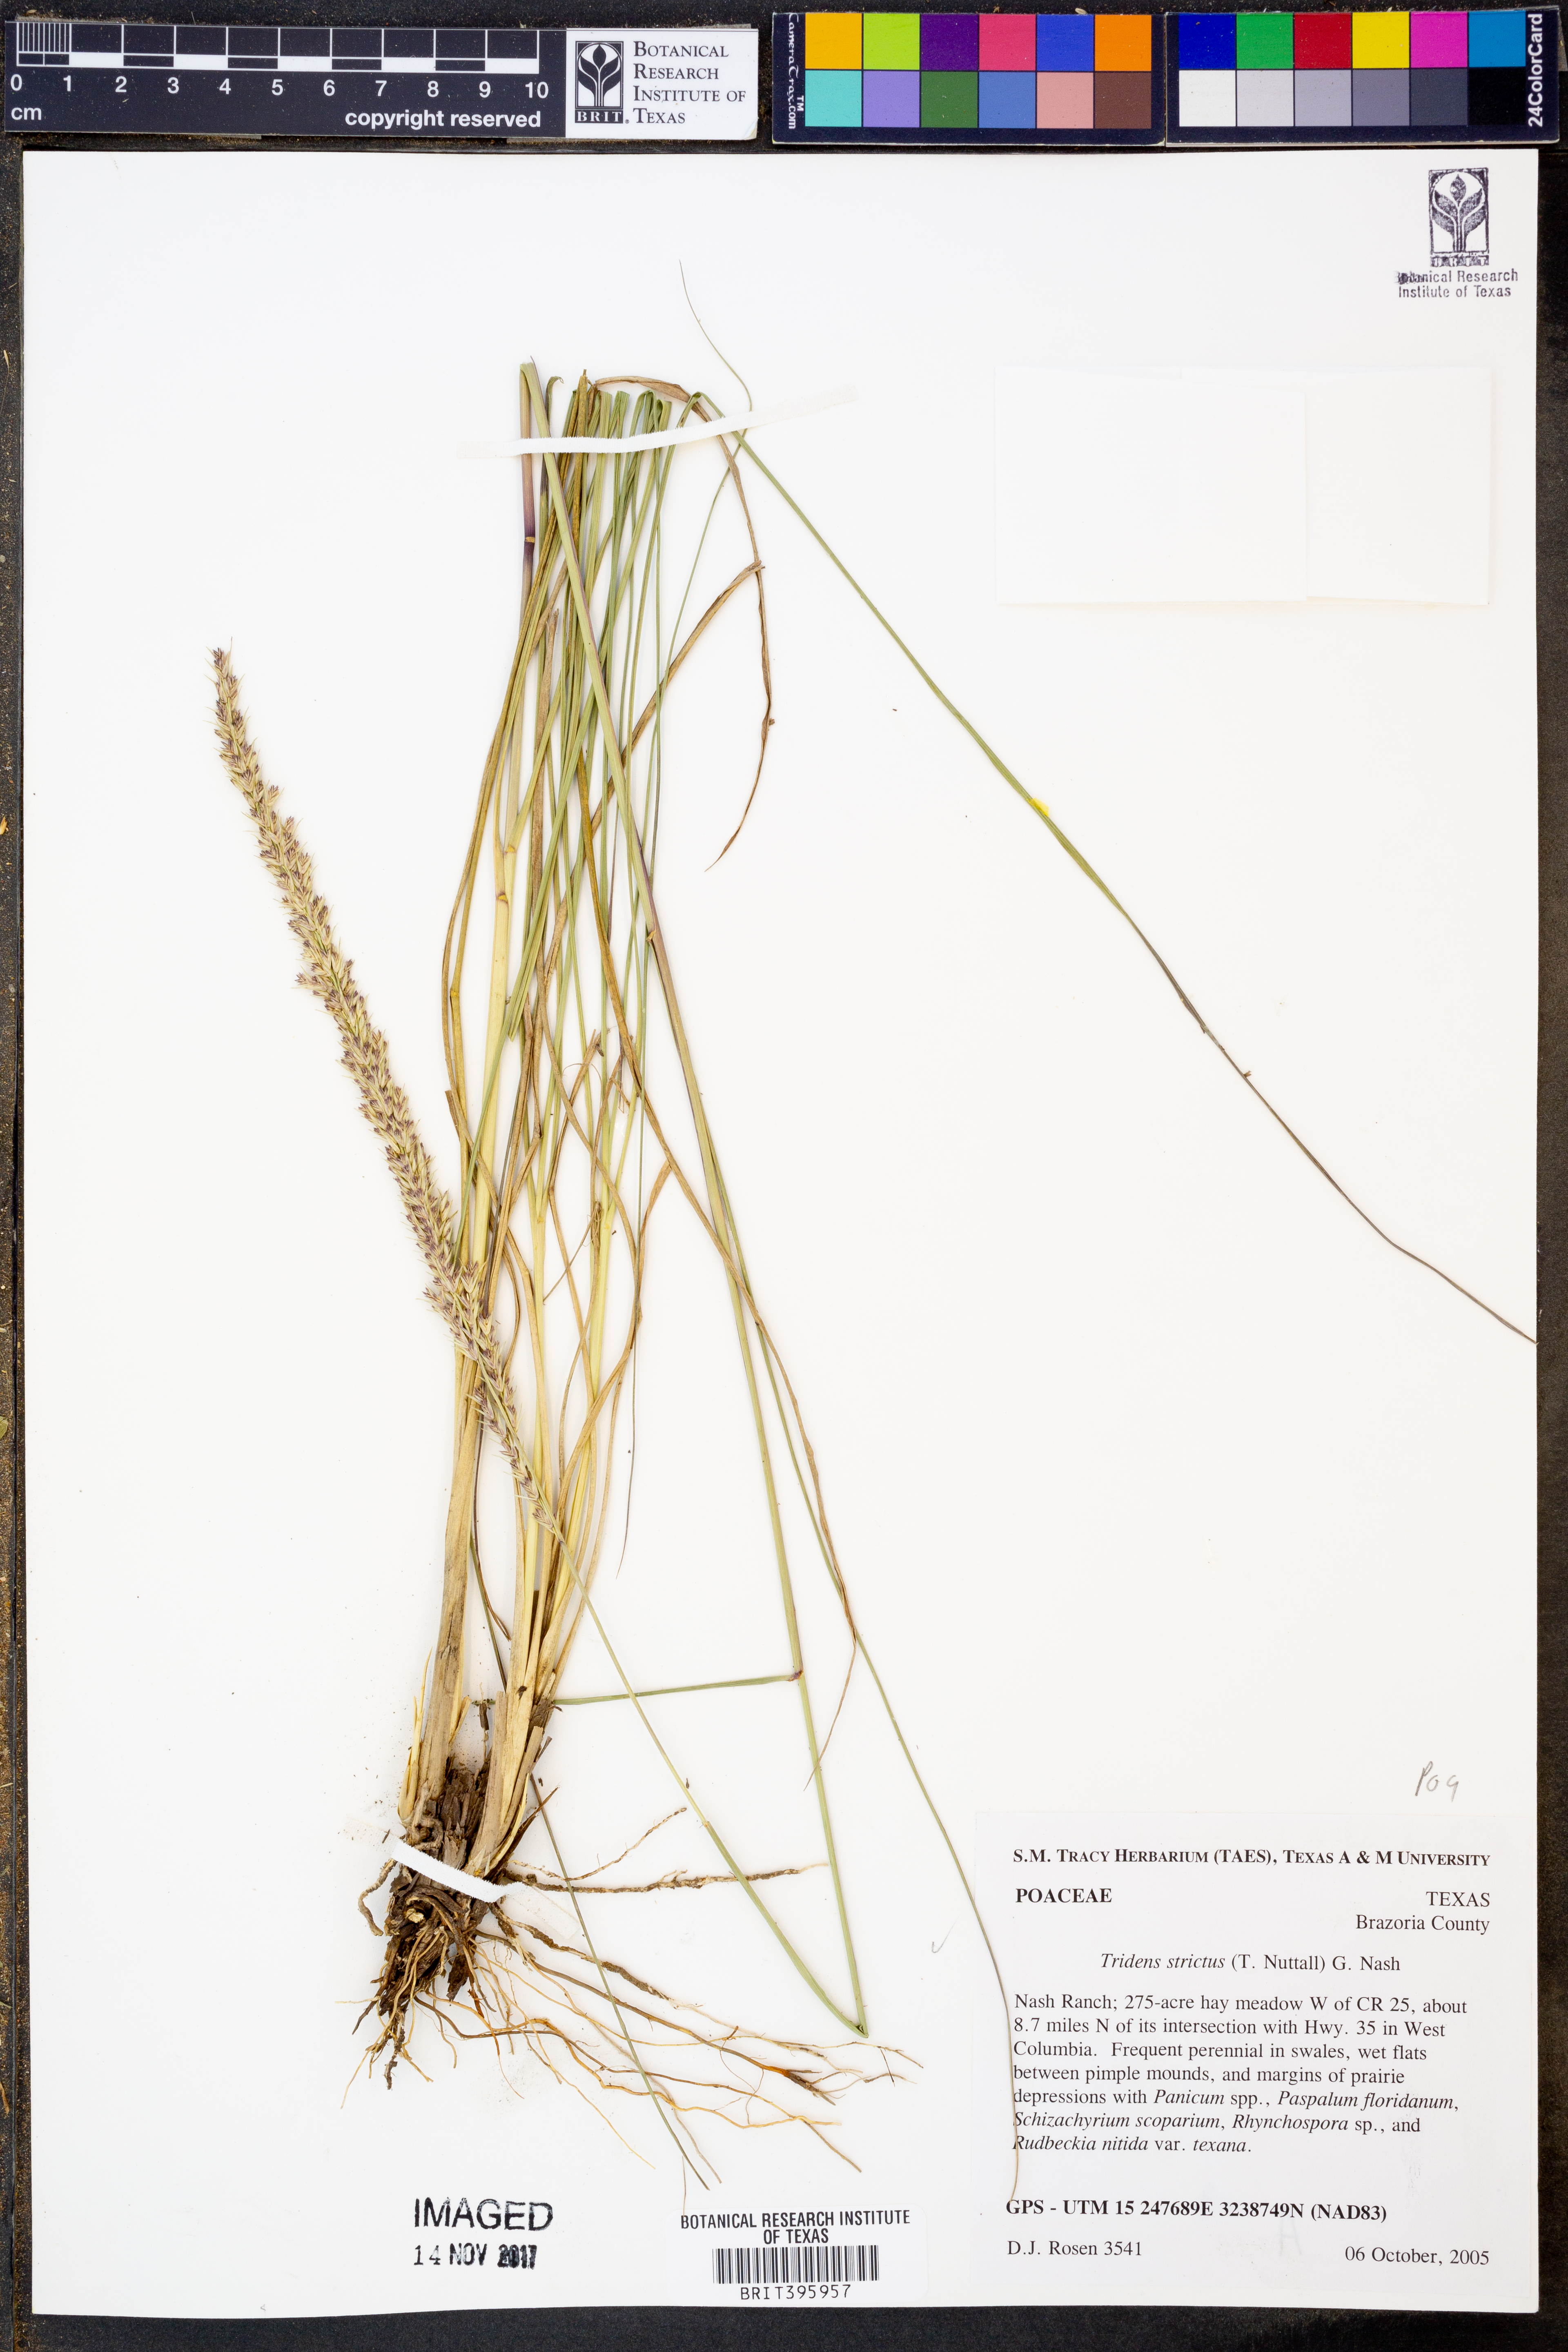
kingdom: Plantae
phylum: Tracheophyta
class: Liliopsida
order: Poales
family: Poaceae
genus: Tridens
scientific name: Tridens strictus
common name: Long-spike tridens
